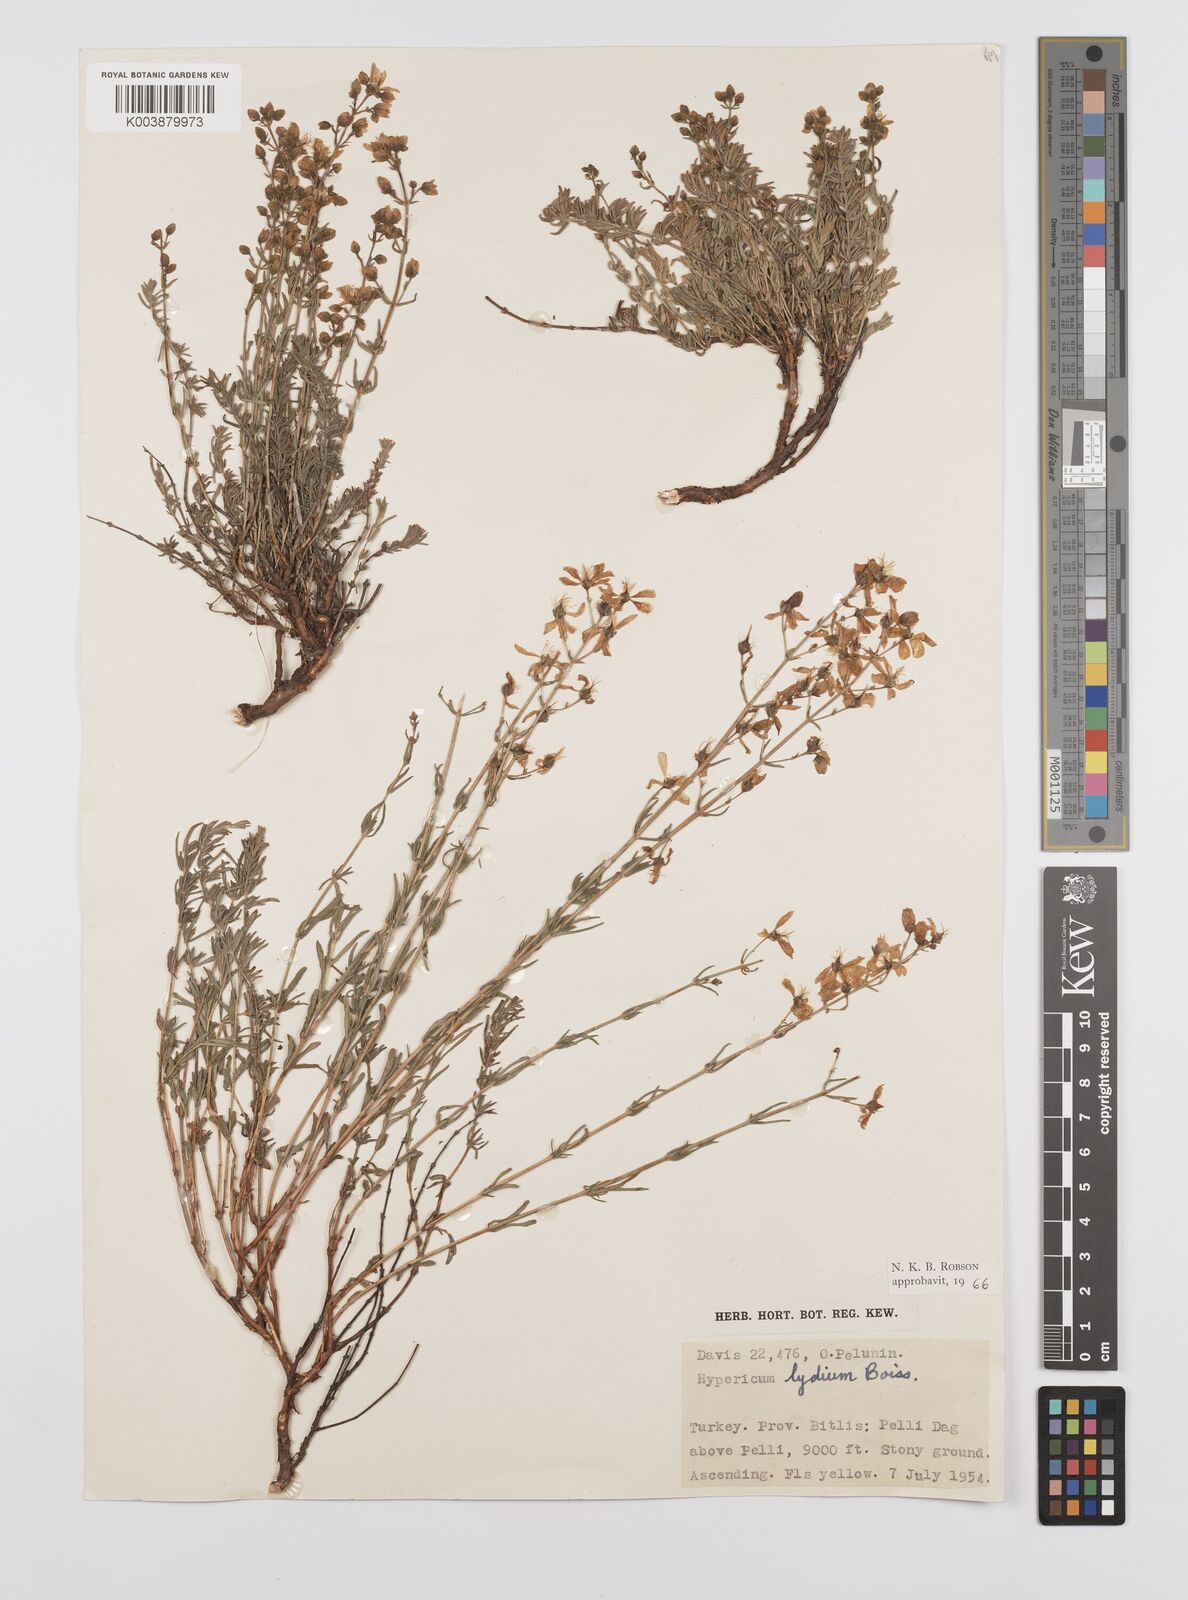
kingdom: Plantae
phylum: Tracheophyta
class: Magnoliopsida
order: Malpighiales
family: Hypericaceae
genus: Hypericum
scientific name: Hypericum lydium
